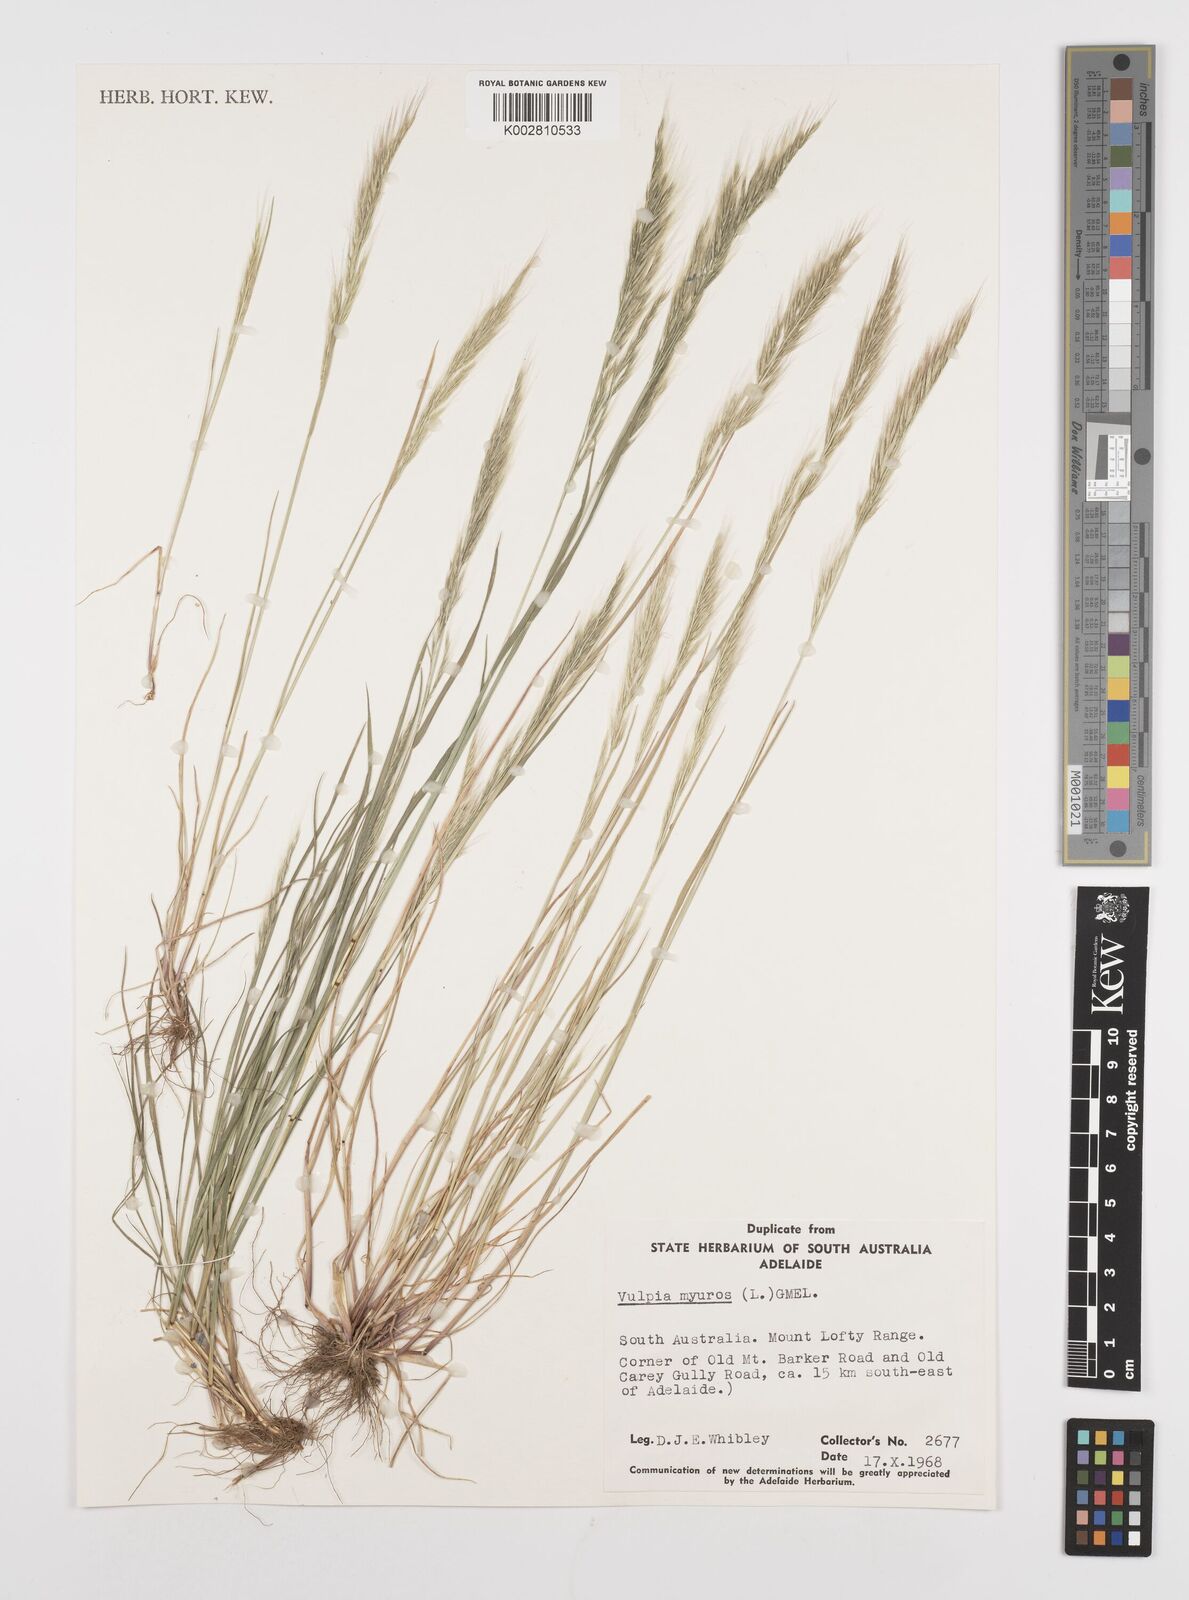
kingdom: Plantae
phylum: Tracheophyta
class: Liliopsida
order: Poales
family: Poaceae
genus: Festuca
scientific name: Festuca myuros
